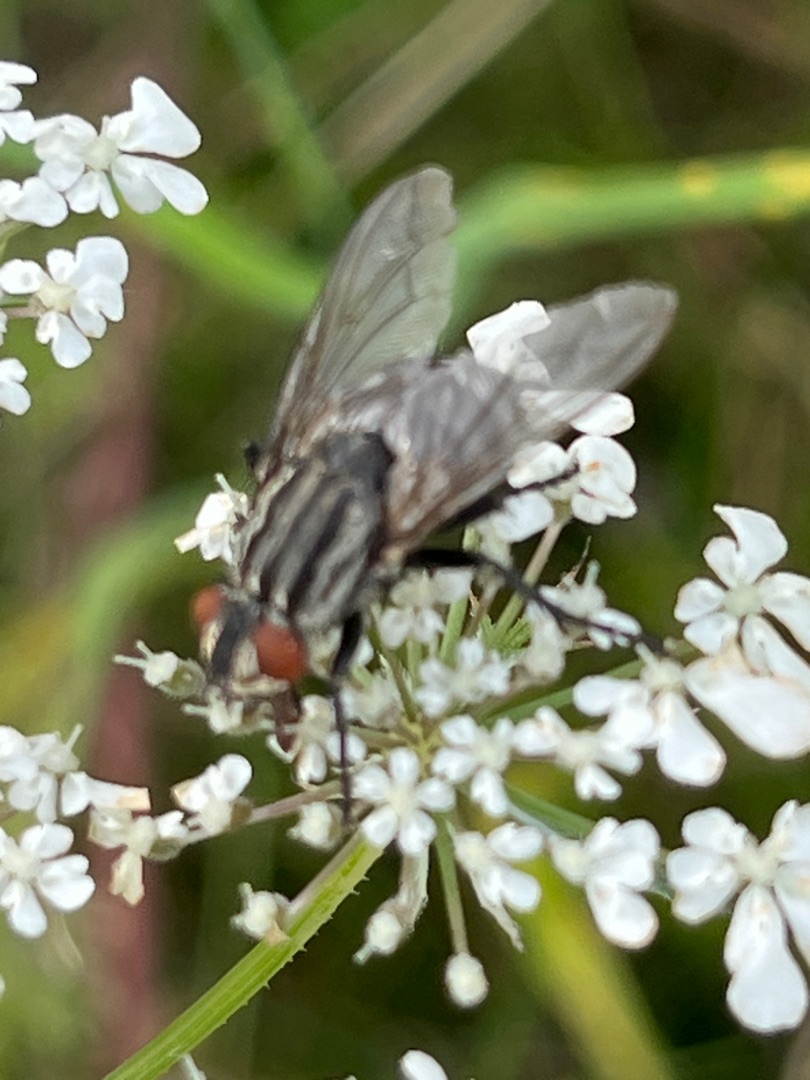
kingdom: Animalia
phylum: Arthropoda
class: Insecta
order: Diptera
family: Sarcophagidae
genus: Sarcophaga
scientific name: Sarcophaga
